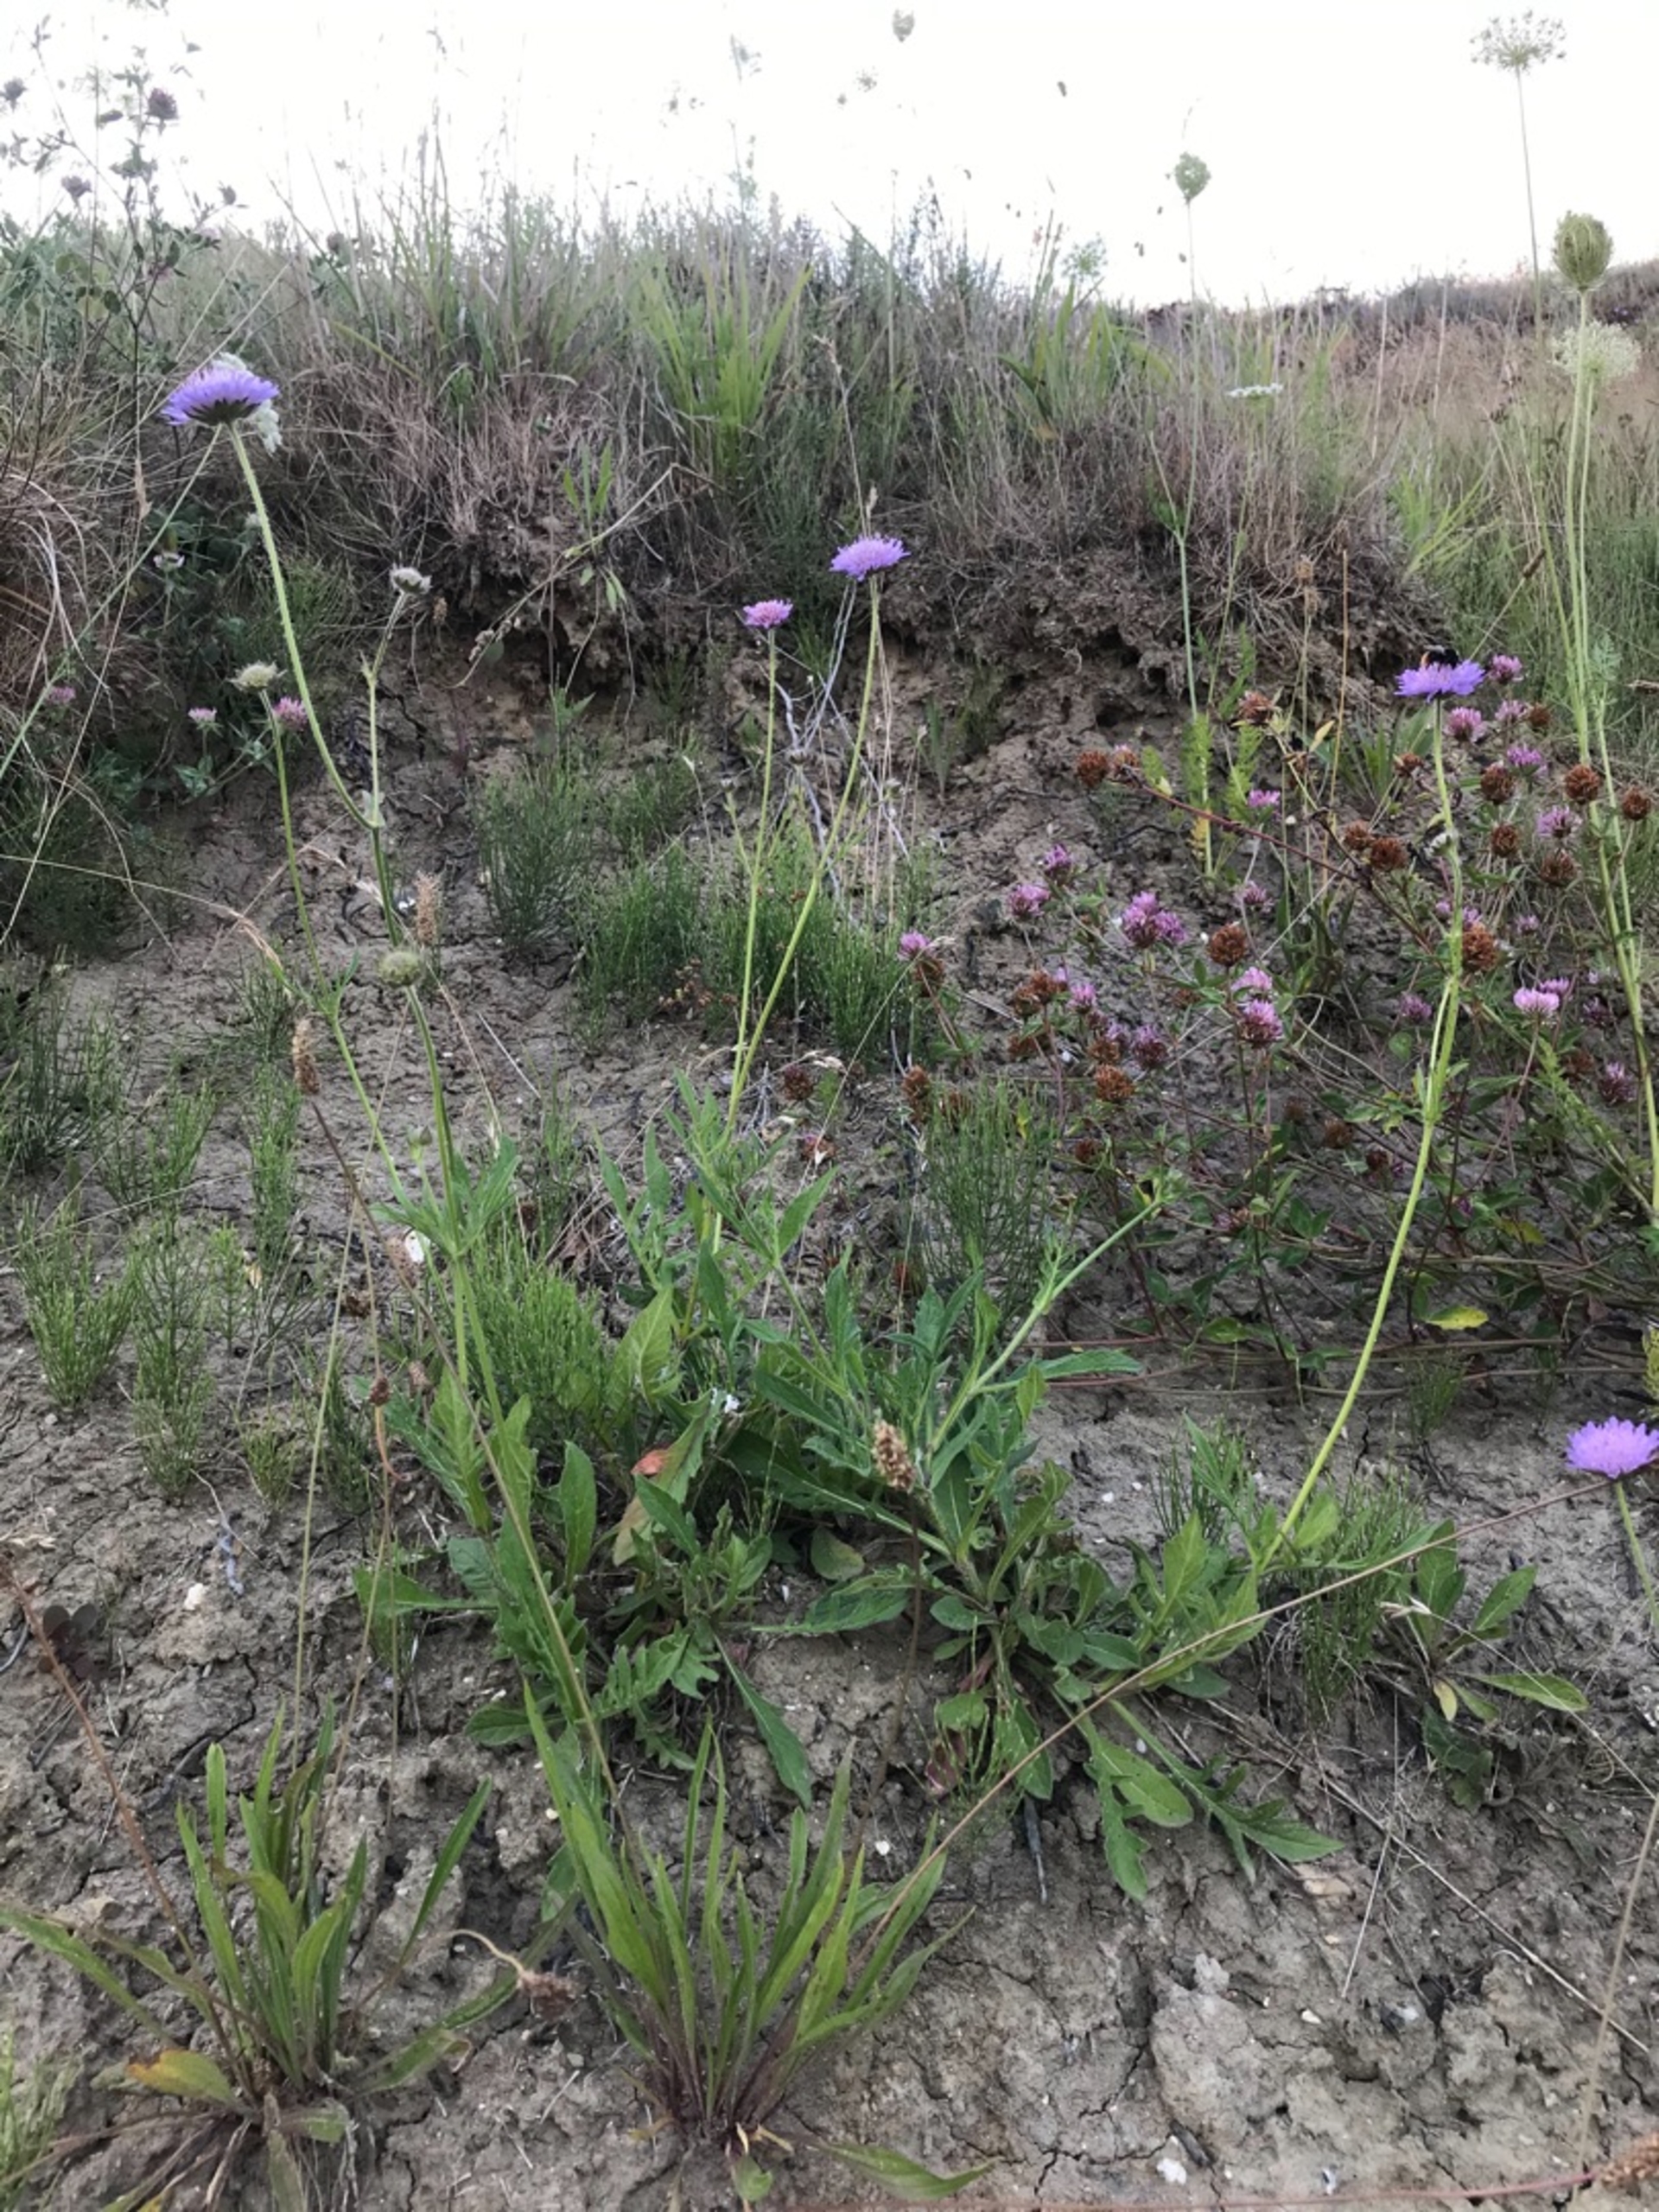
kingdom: Plantae
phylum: Tracheophyta
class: Magnoliopsida
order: Dipsacales
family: Caprifoliaceae
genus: Knautia
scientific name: Knautia arvensis
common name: Blåhat
